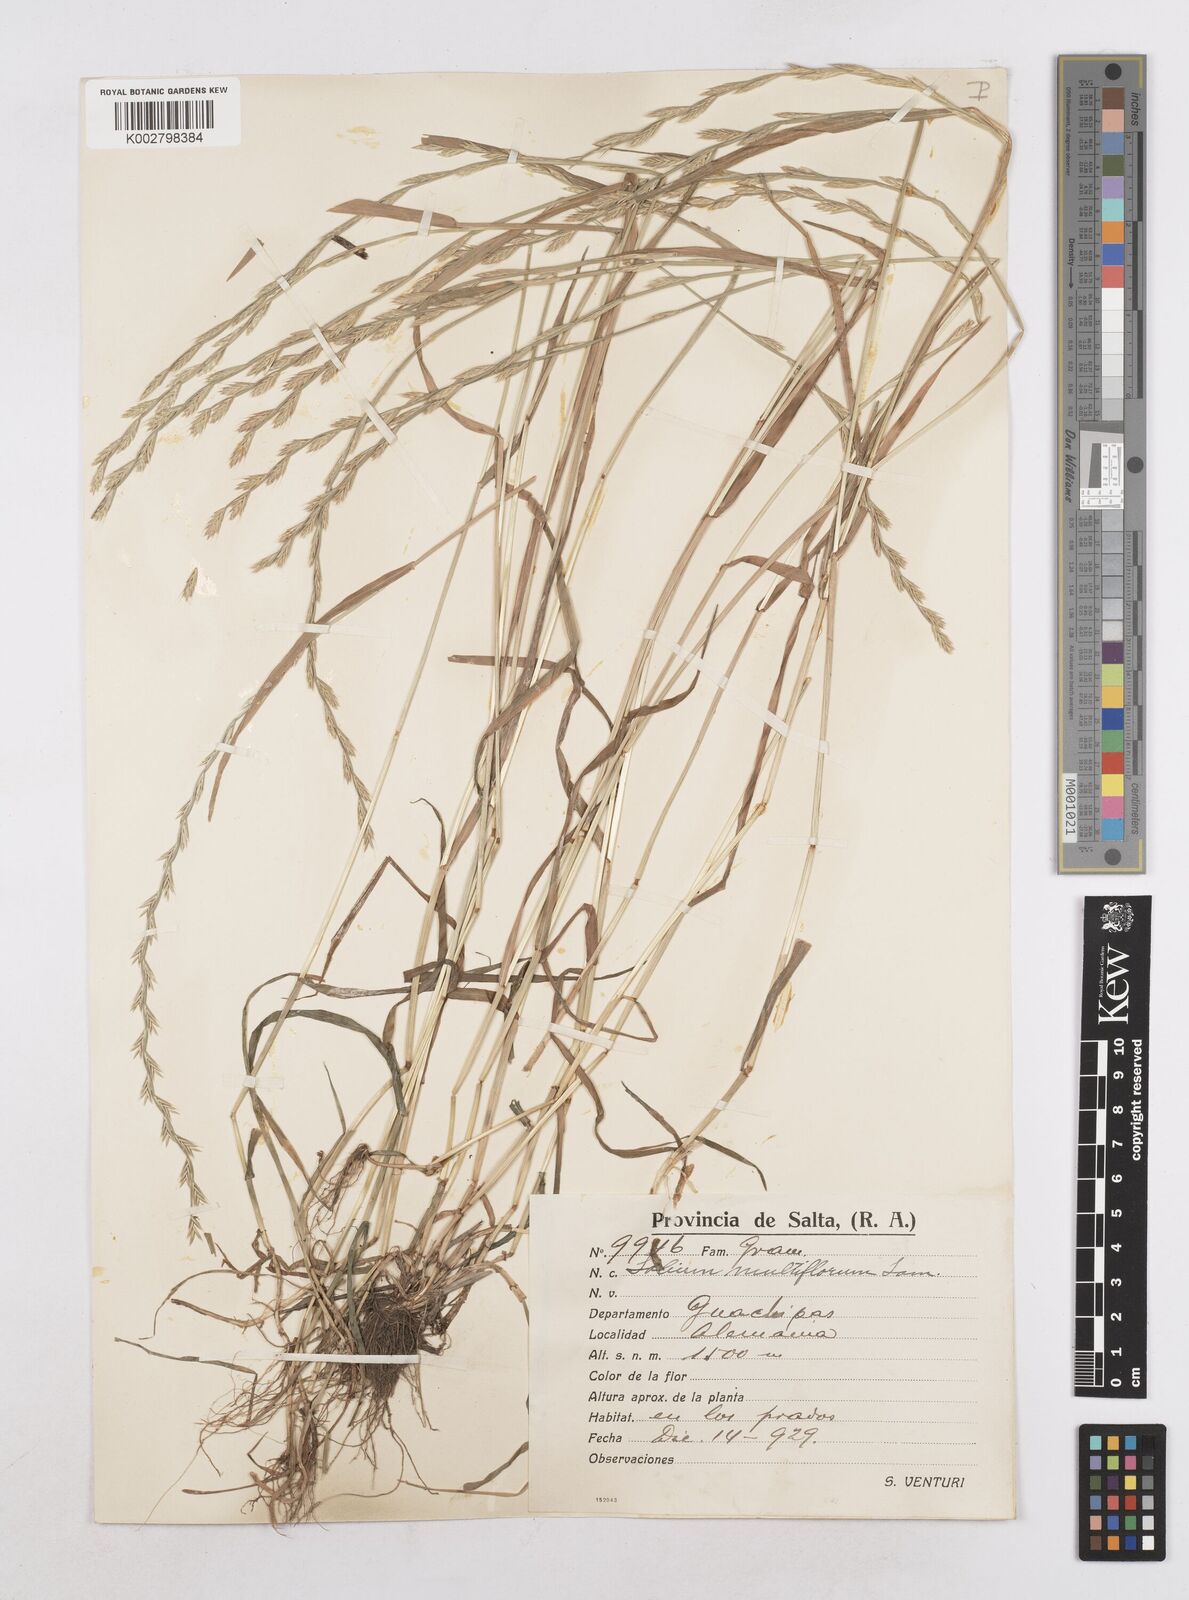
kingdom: Plantae
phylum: Tracheophyta
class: Liliopsida
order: Poales
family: Poaceae
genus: Lolium
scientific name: Lolium multiflorum
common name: Annual ryegrass
